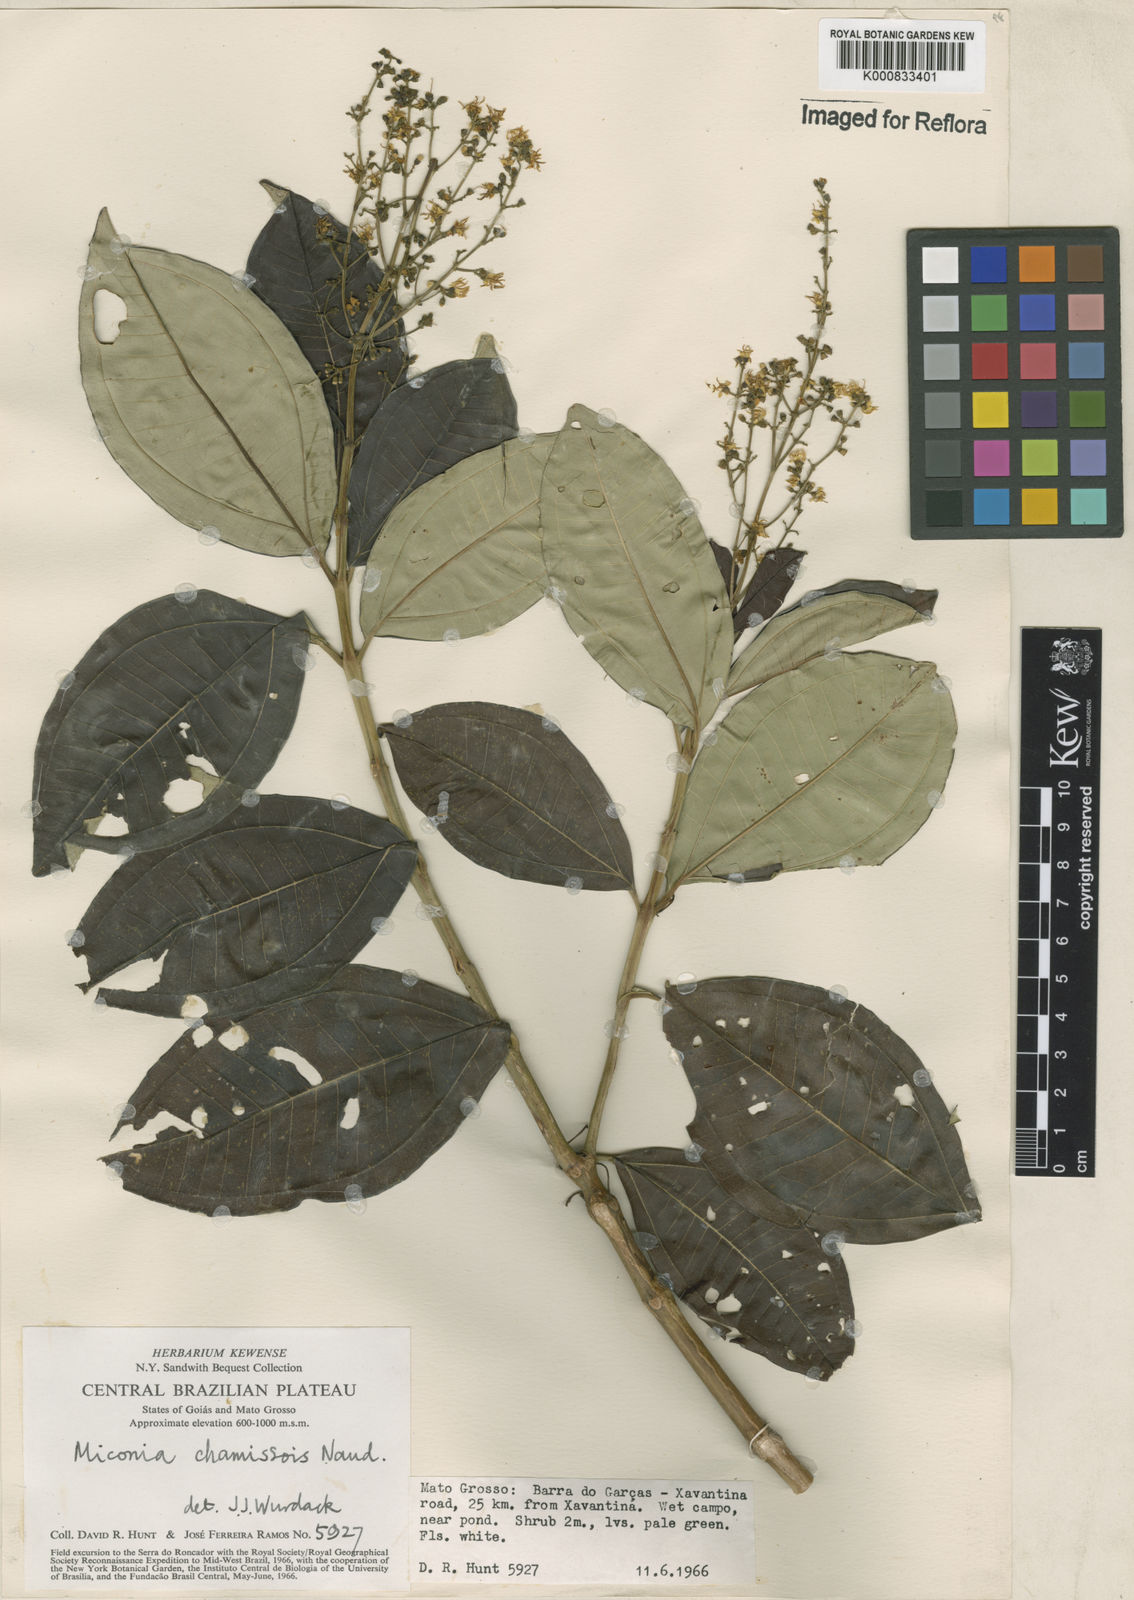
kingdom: Plantae
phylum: Tracheophyta
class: Magnoliopsida
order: Myrtales
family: Melastomataceae
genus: Miconia
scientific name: Miconia chamissois
